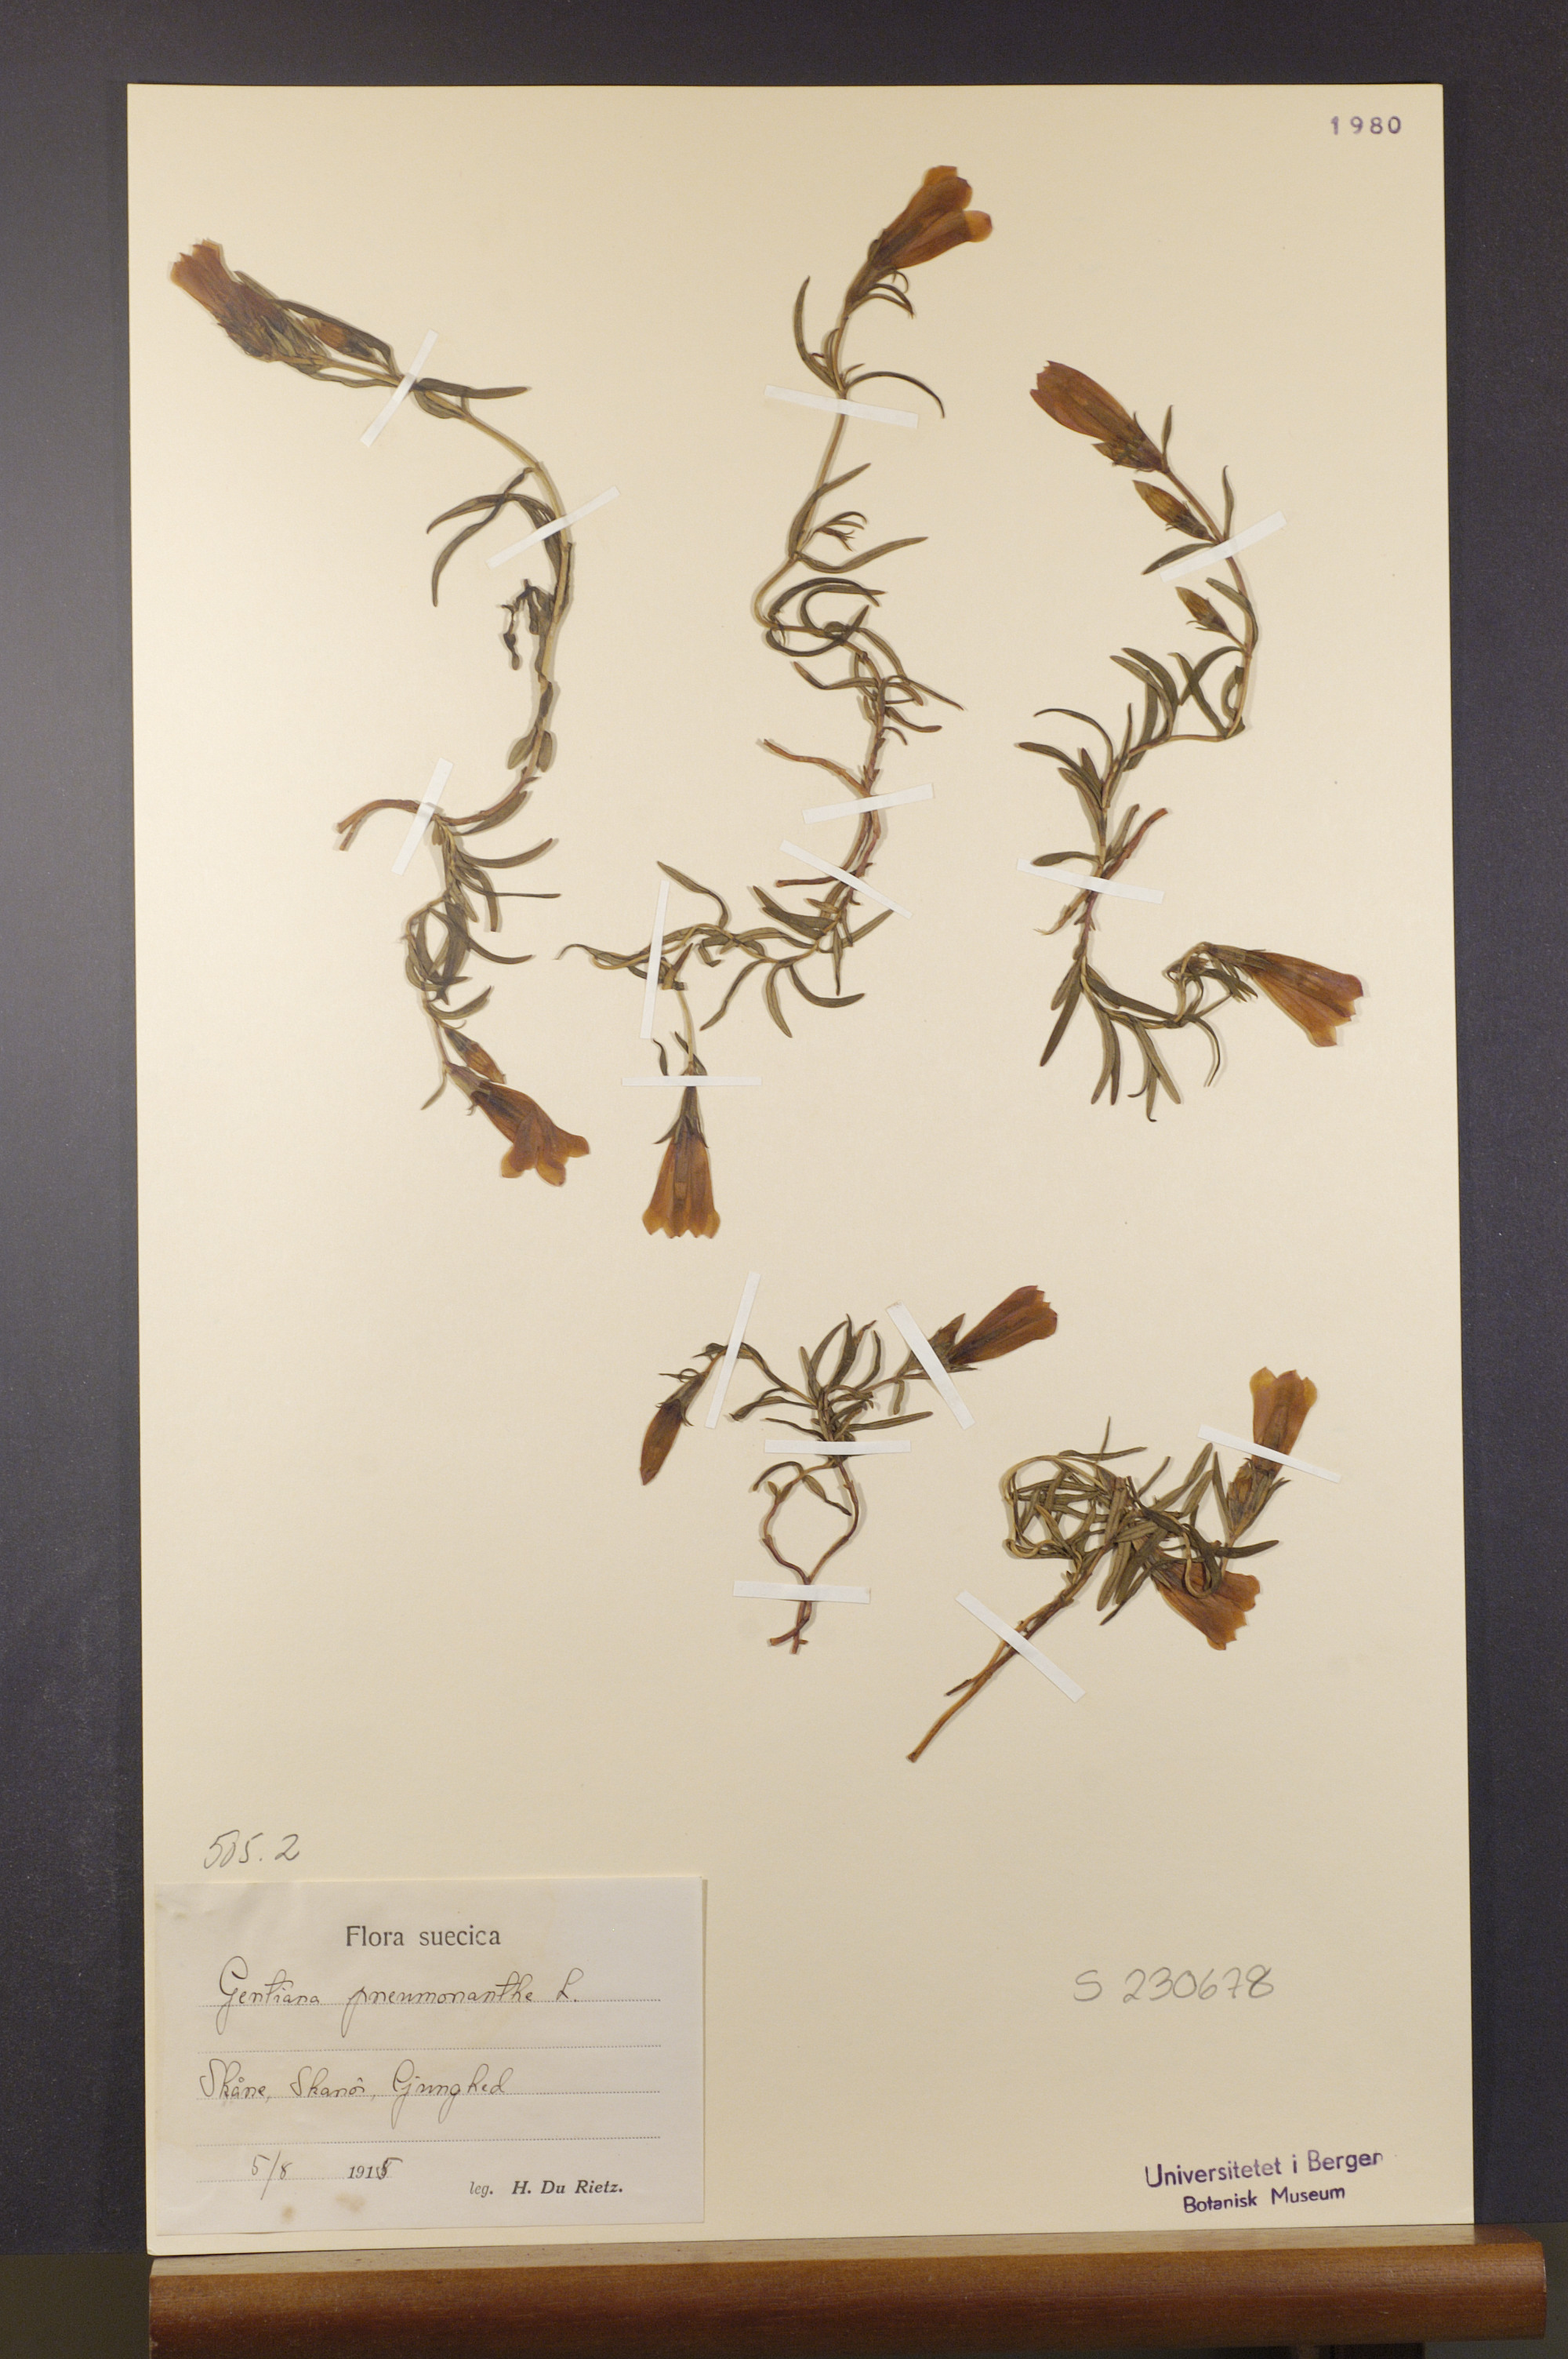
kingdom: Plantae
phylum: Tracheophyta
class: Magnoliopsida
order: Gentianales
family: Gentianaceae
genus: Gentiana
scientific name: Gentiana pneumonanthe
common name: Marsh gentian
